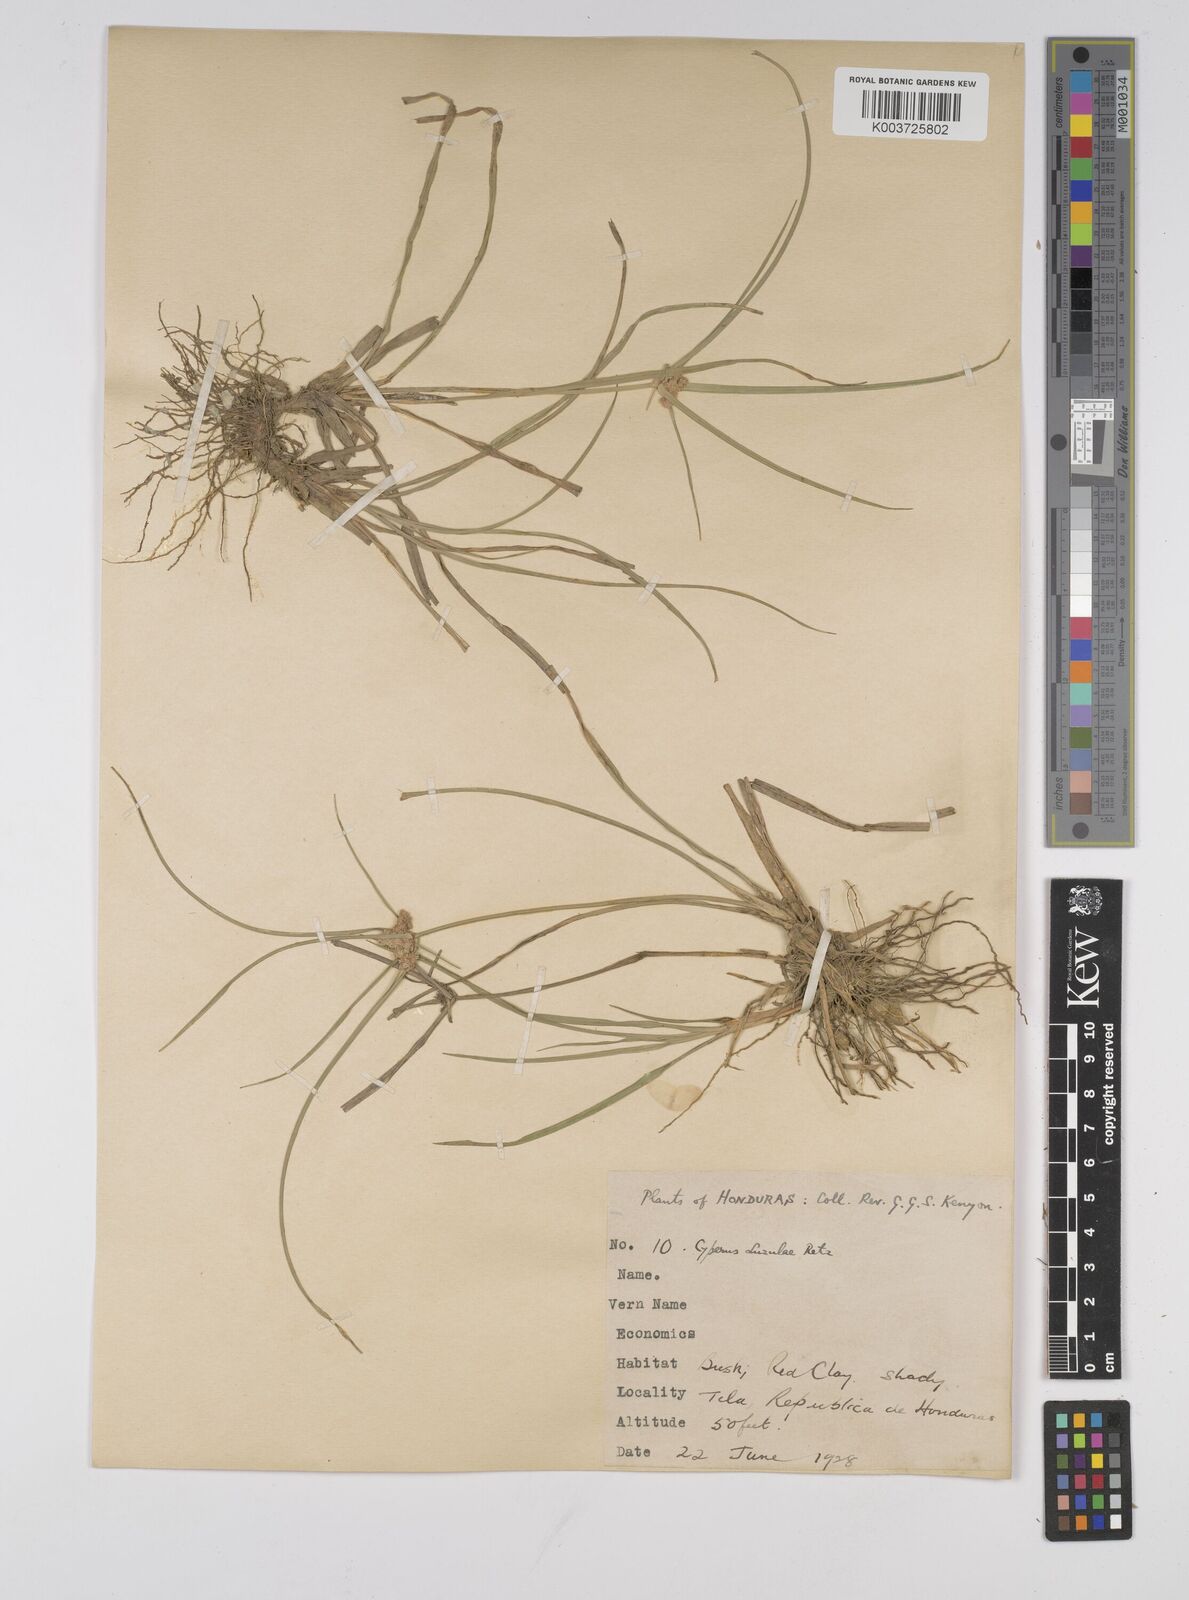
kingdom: Plantae
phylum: Tracheophyta
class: Liliopsida
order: Poales
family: Cyperaceae
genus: Cyperus
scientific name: Cyperus luzulae
